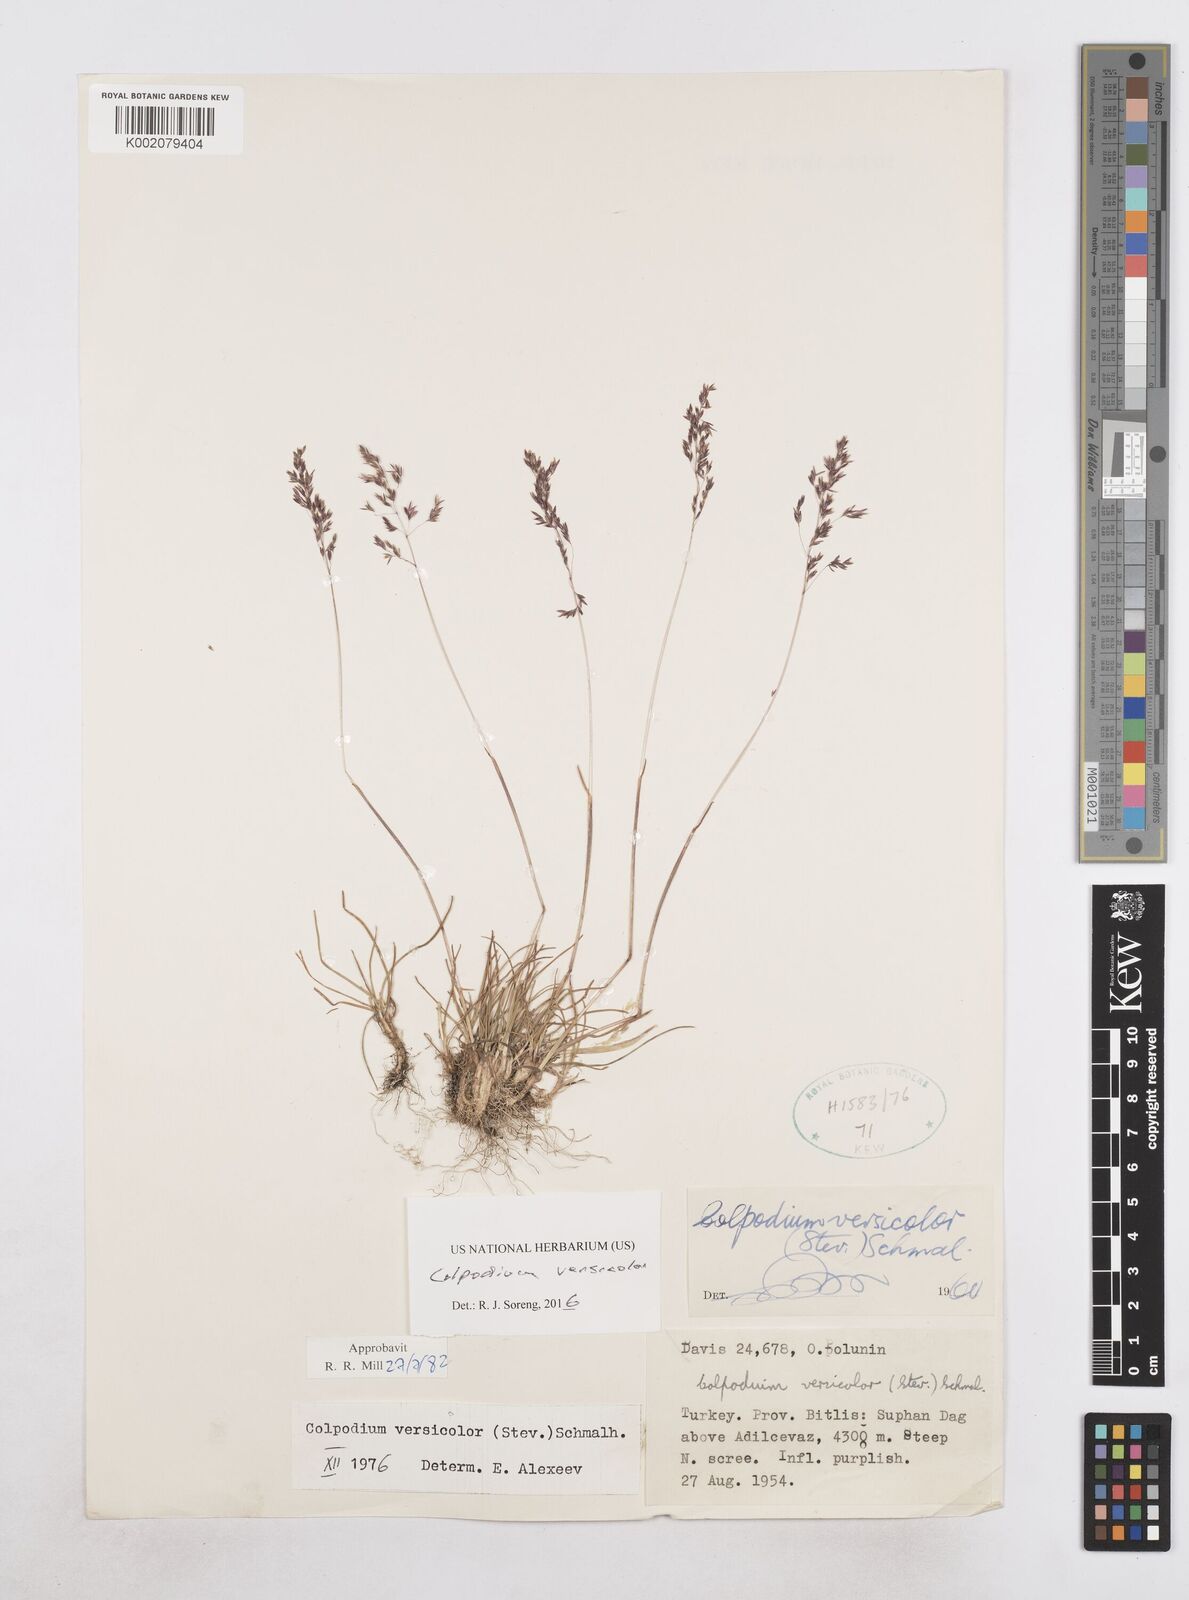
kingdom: Plantae
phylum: Tracheophyta
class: Liliopsida
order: Poales
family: Poaceae
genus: Colpodium
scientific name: Colpodium versicolor
